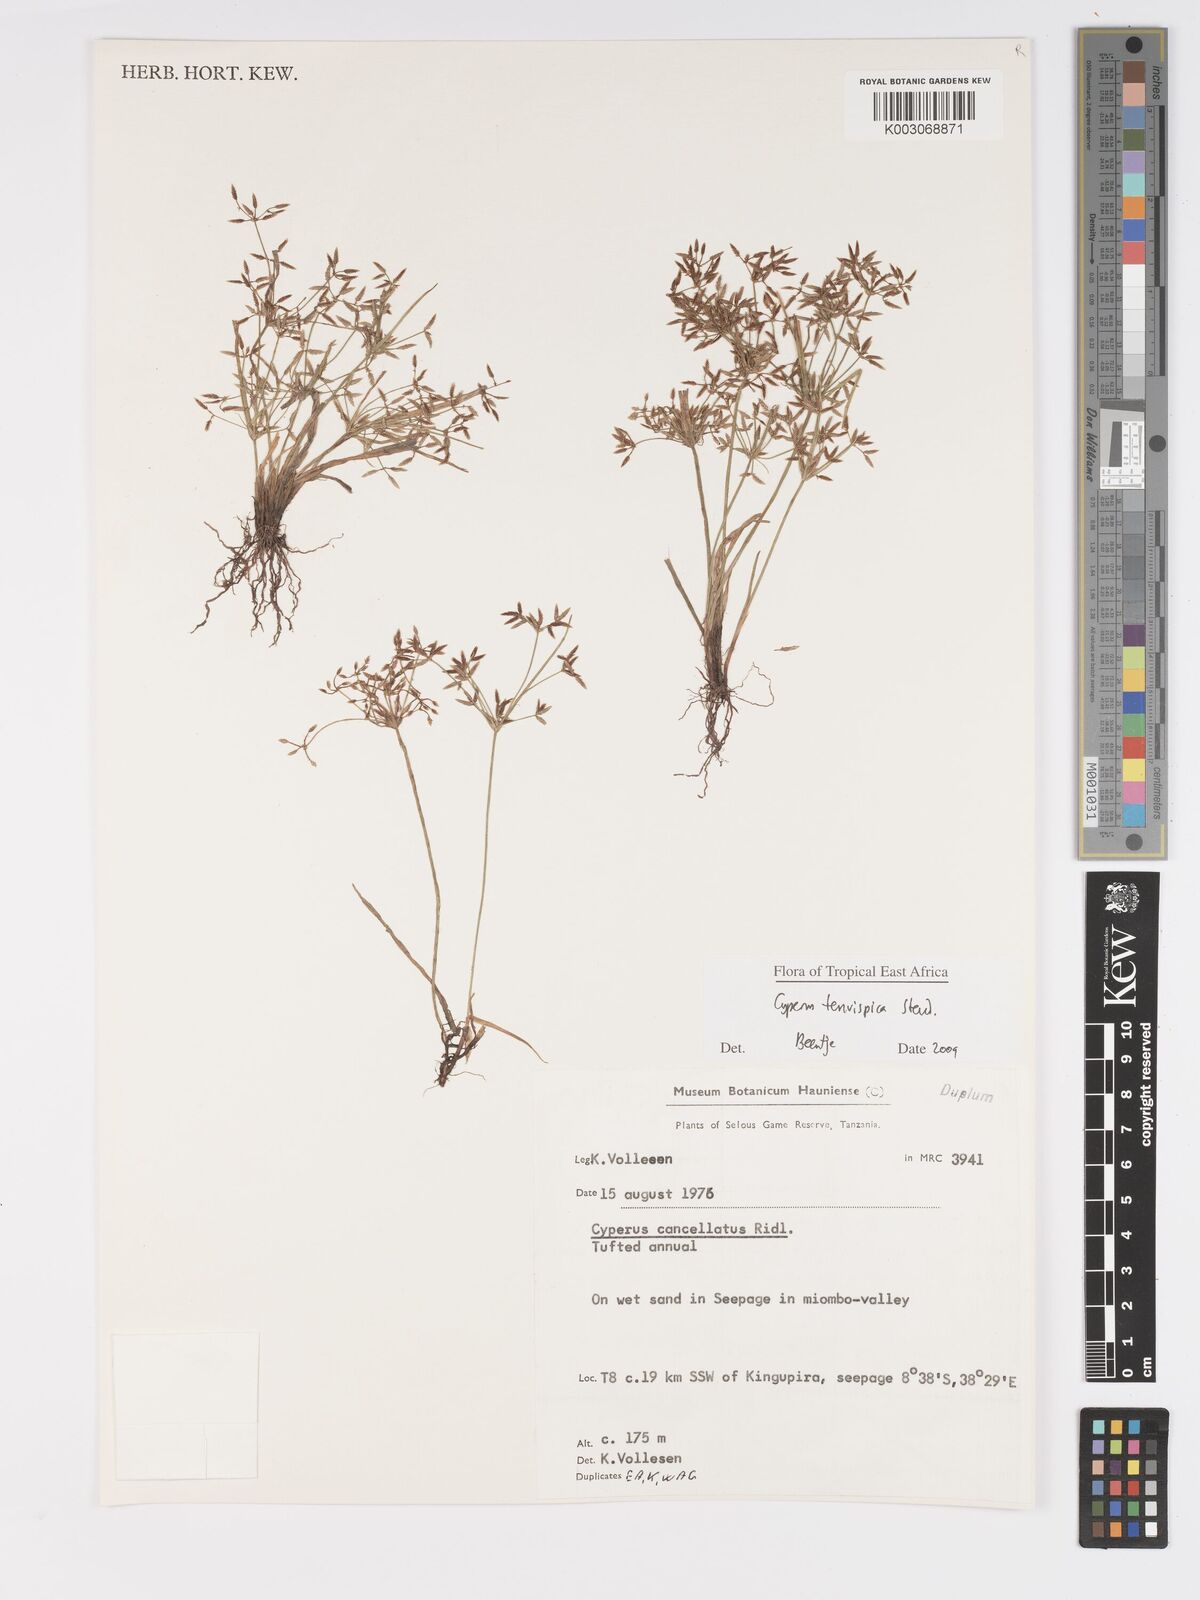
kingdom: Plantae
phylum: Tracheophyta
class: Liliopsida
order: Poales
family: Cyperaceae
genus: Cyperus
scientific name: Cyperus tenuispica
